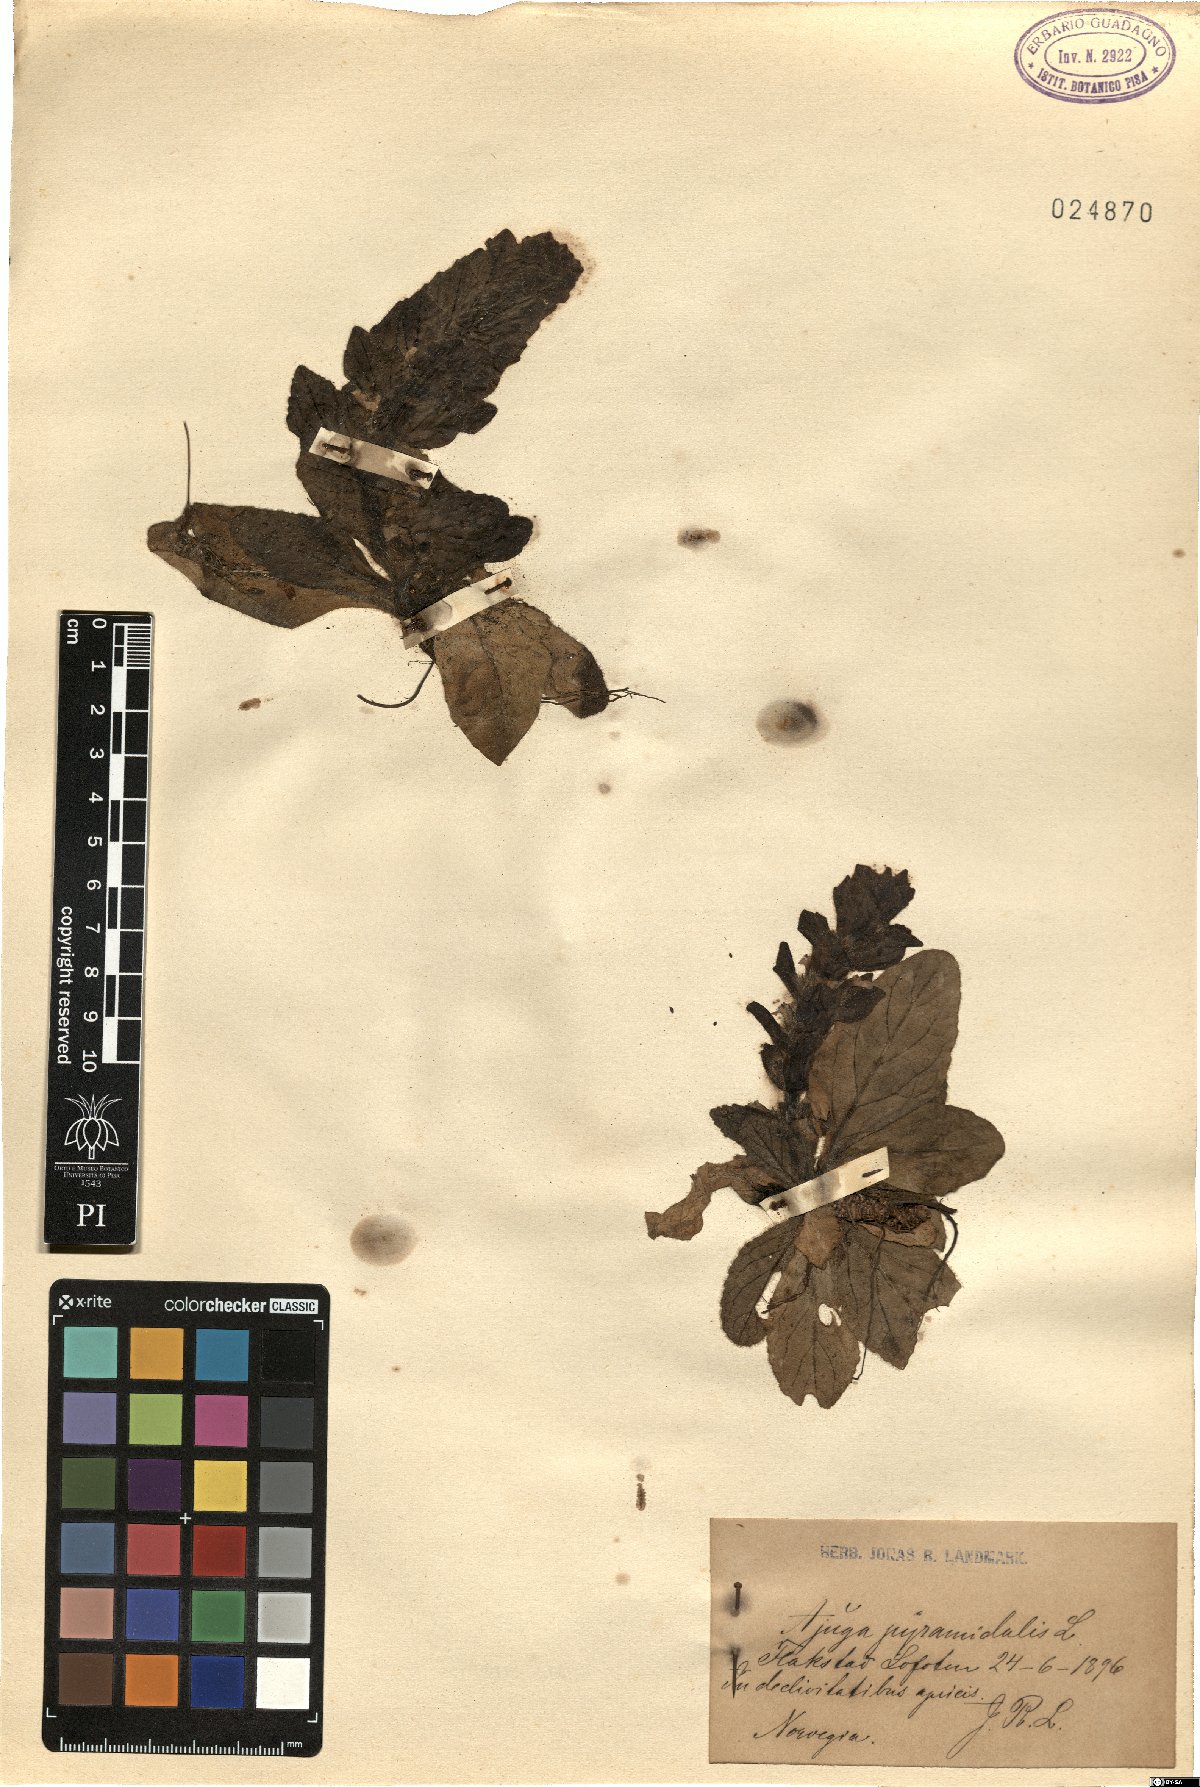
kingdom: Plantae
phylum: Tracheophyta
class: Magnoliopsida
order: Lamiales
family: Lamiaceae
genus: Ajuga
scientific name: Ajuga pyramidalis
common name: Pyramid bugle
